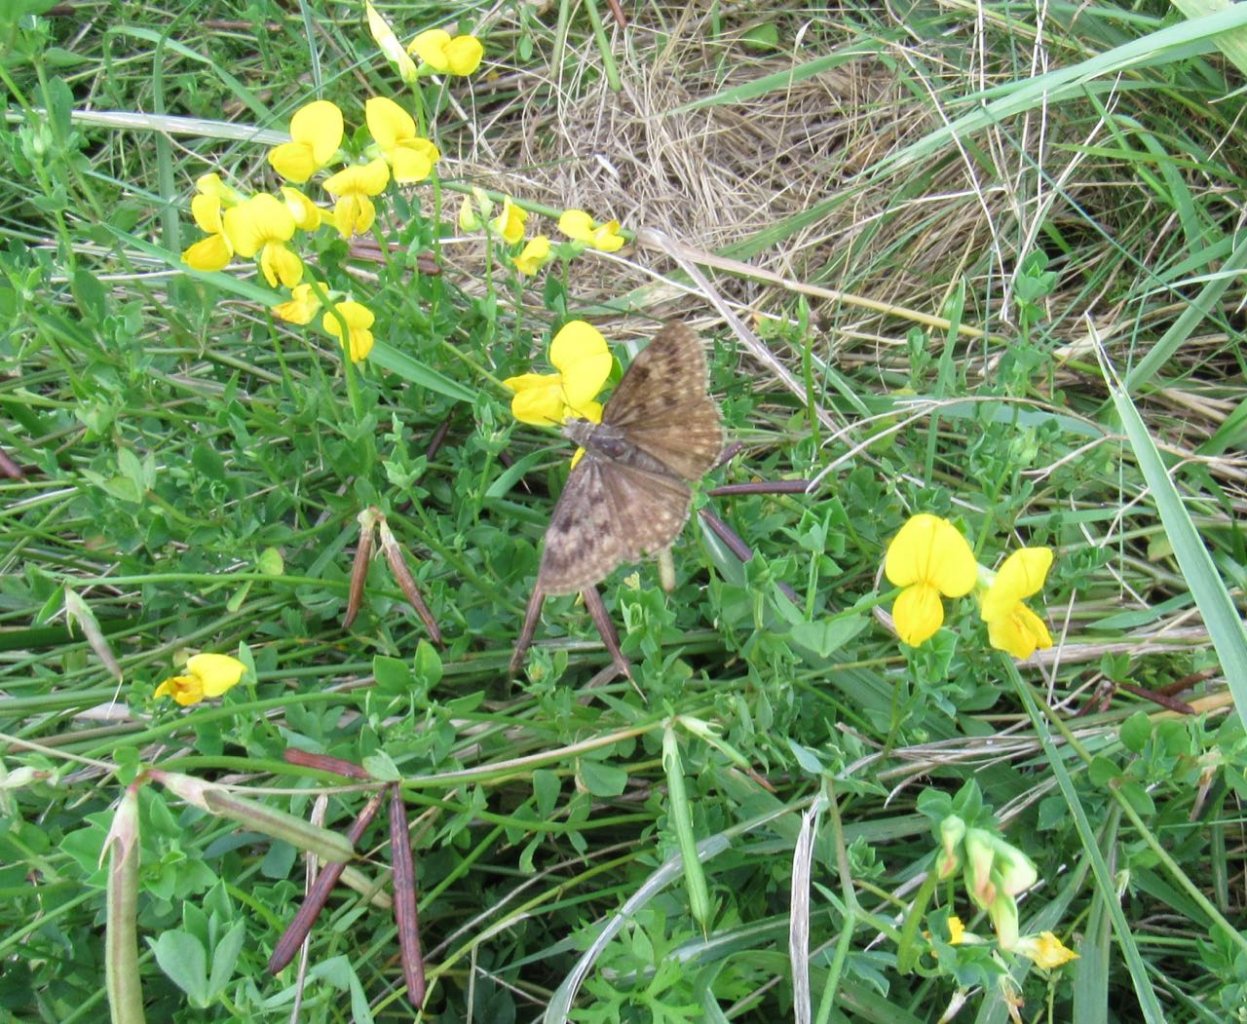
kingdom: Animalia
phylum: Arthropoda
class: Insecta
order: Lepidoptera
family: Hesperiidae
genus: Gesta
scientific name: Gesta
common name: Wild Indigo Duskywing
